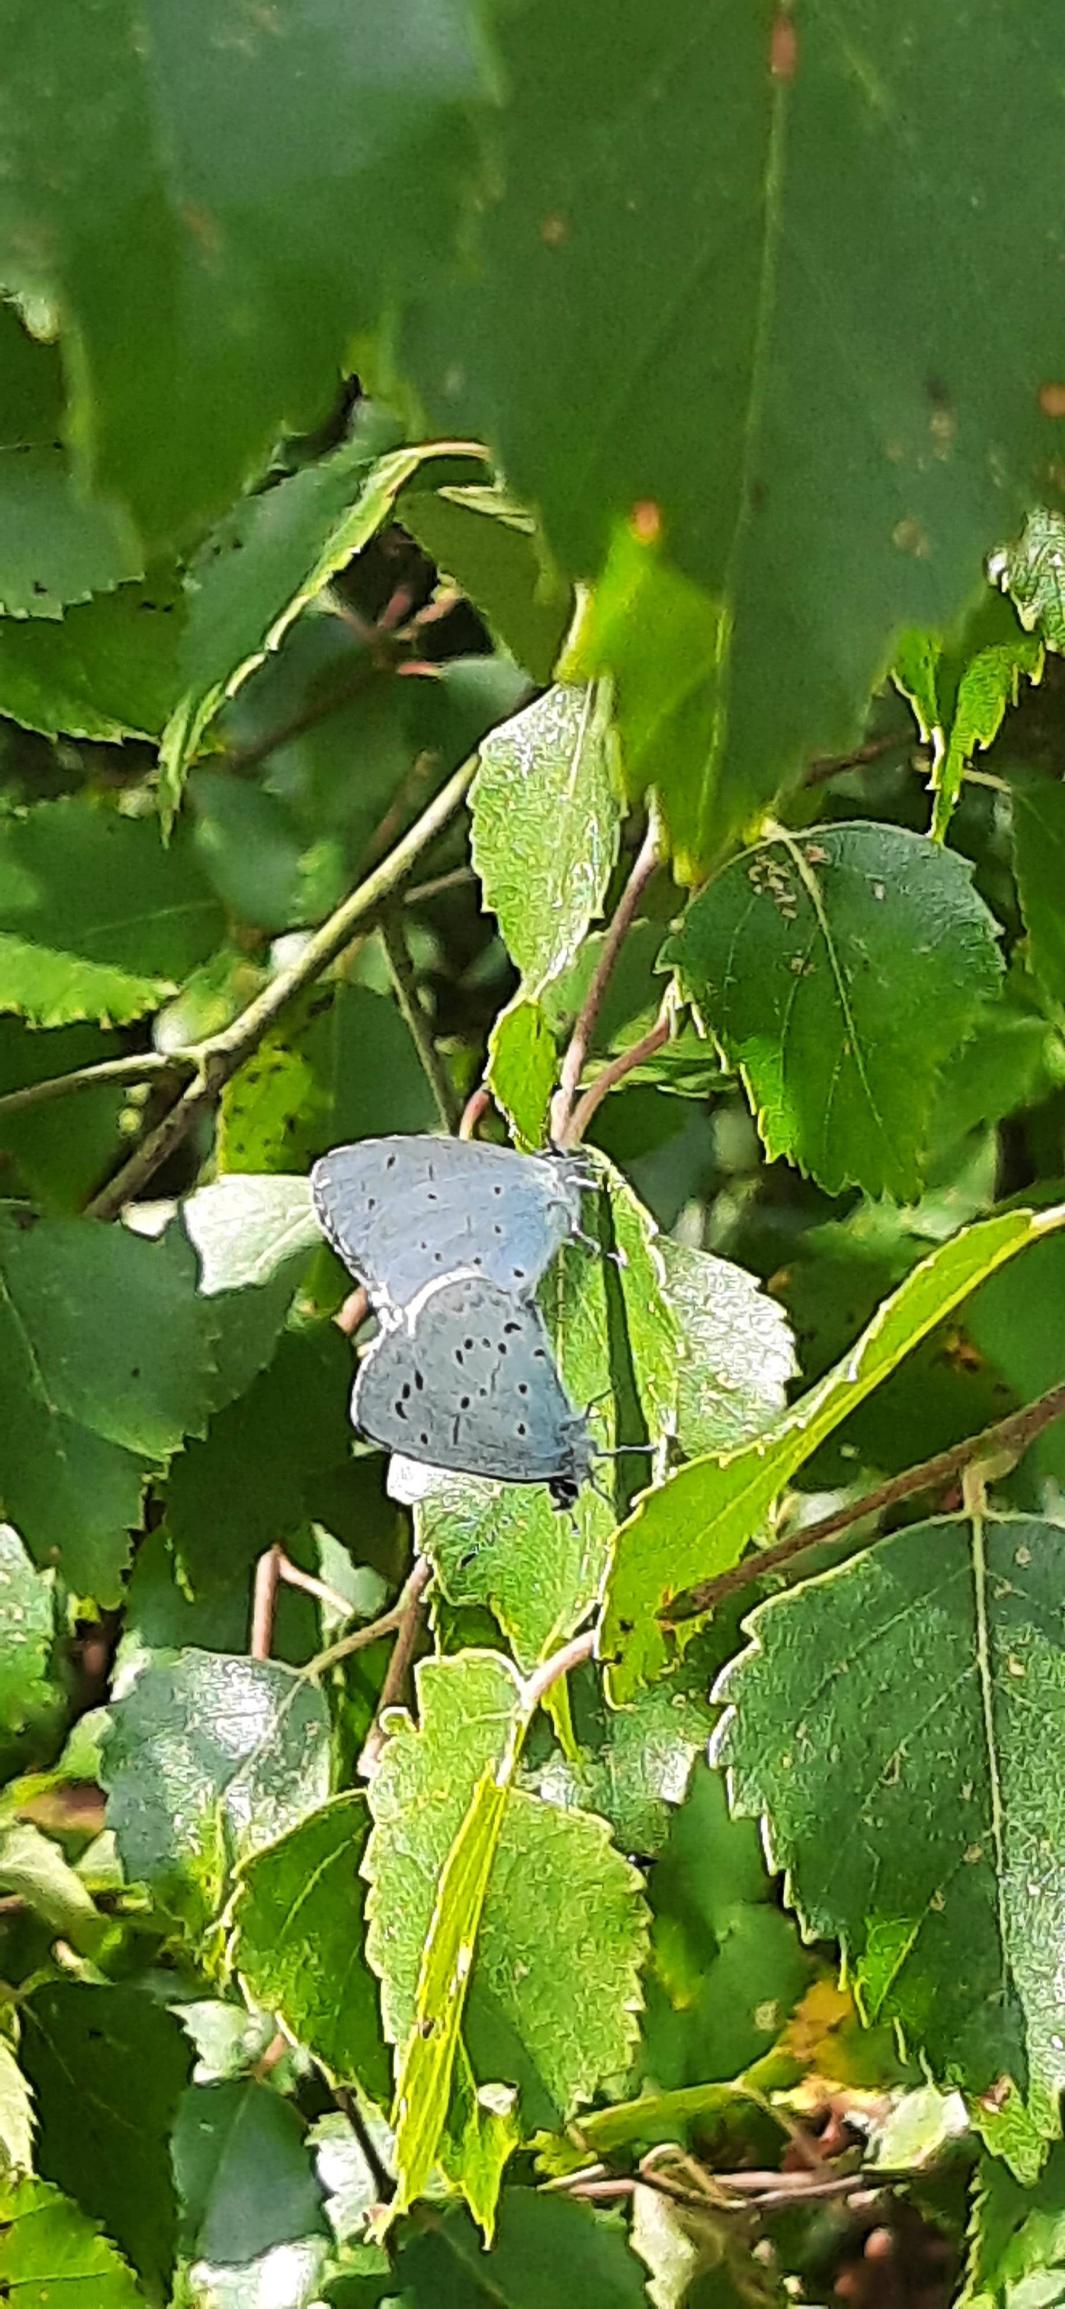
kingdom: Animalia
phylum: Arthropoda
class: Insecta
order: Lepidoptera
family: Lycaenidae
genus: Celastrina
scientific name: Celastrina argiolus
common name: Skovblåfugl
